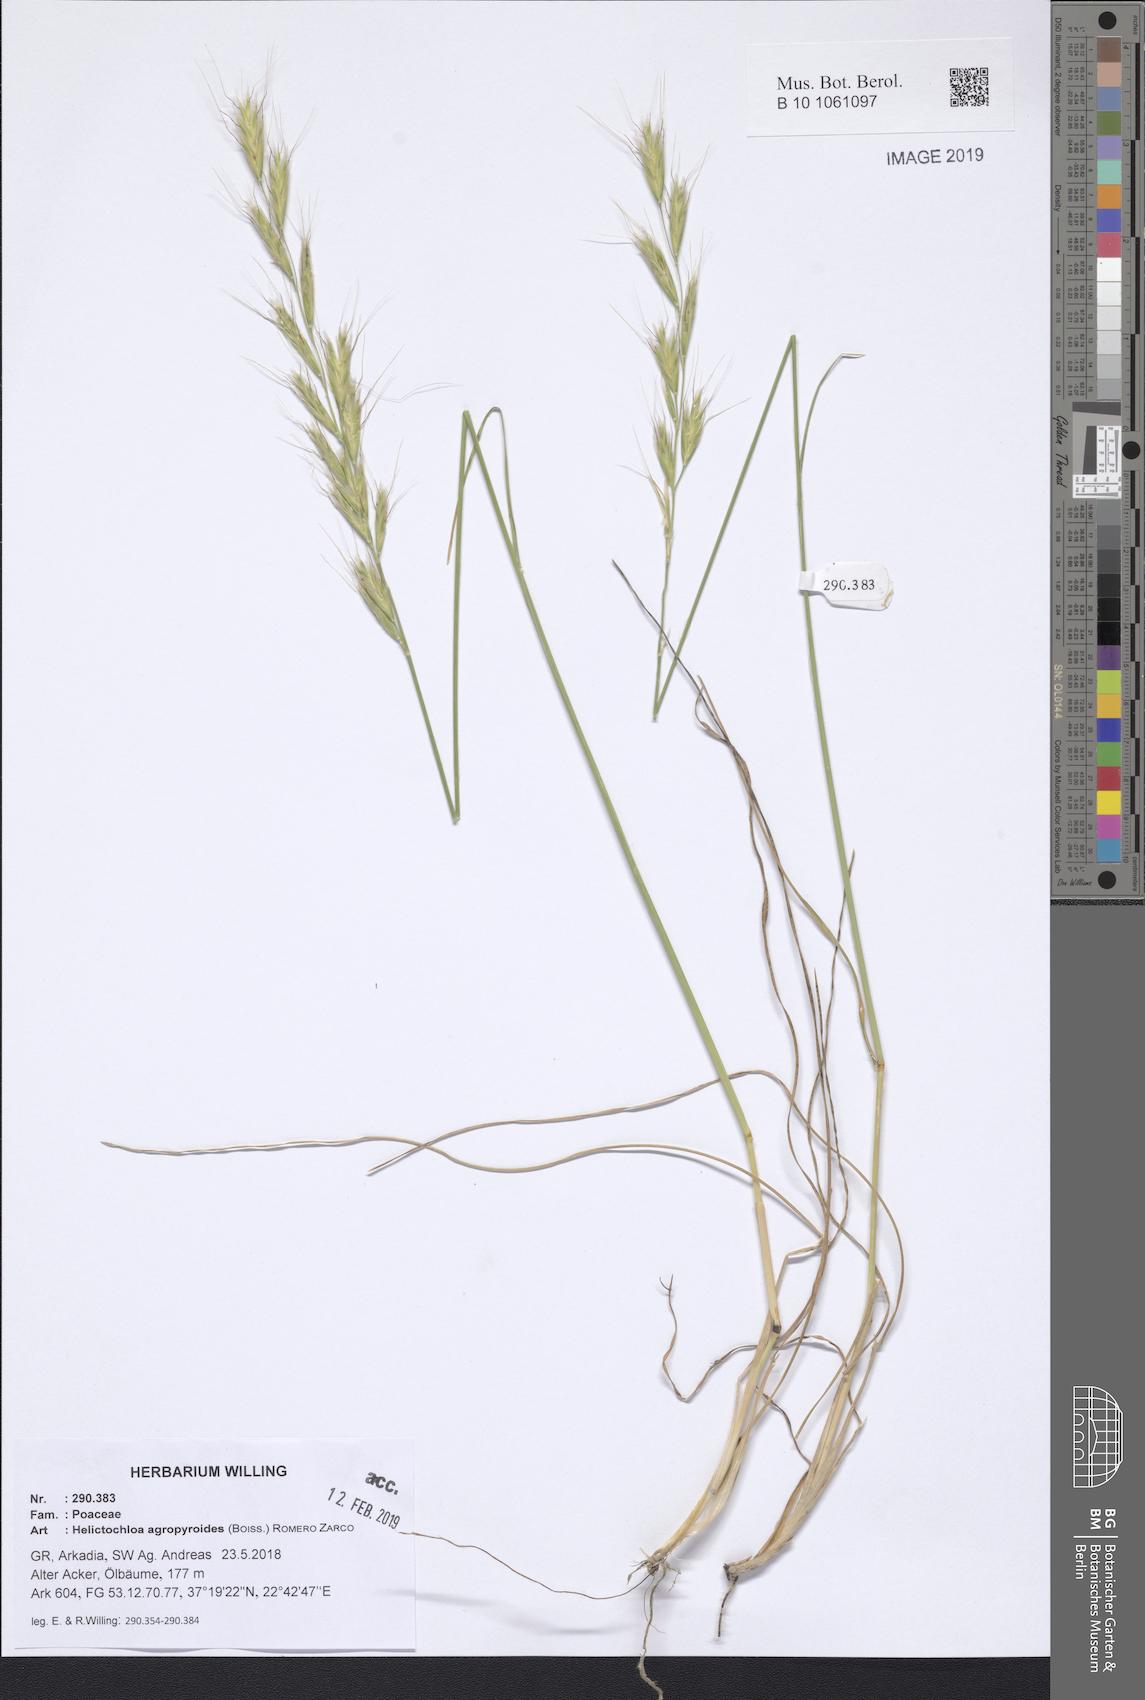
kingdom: Plantae
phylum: Tracheophyta
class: Liliopsida
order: Poales
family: Poaceae
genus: Helictochloa
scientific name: Helictochloa agropyroides
